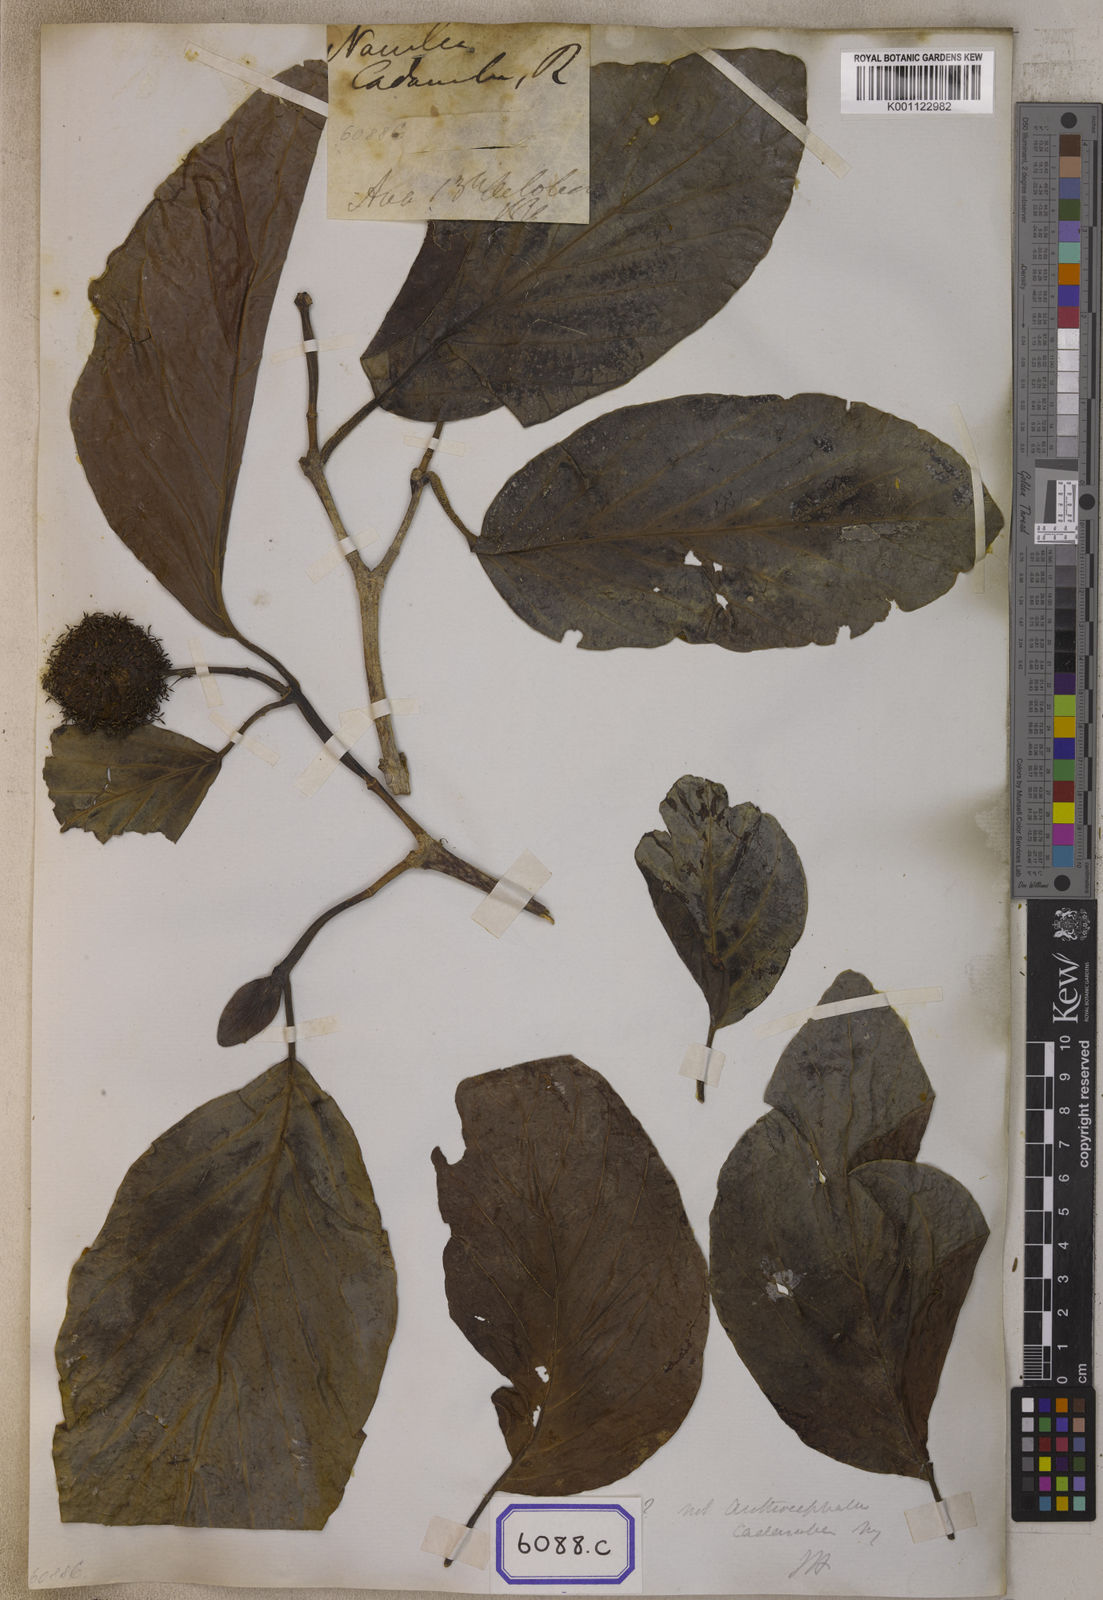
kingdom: Plantae
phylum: Tracheophyta
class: Magnoliopsida
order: Gentianales
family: Rubiaceae
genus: Neolamarckia
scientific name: Neolamarckia cadamba
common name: Leichhardt-pine
